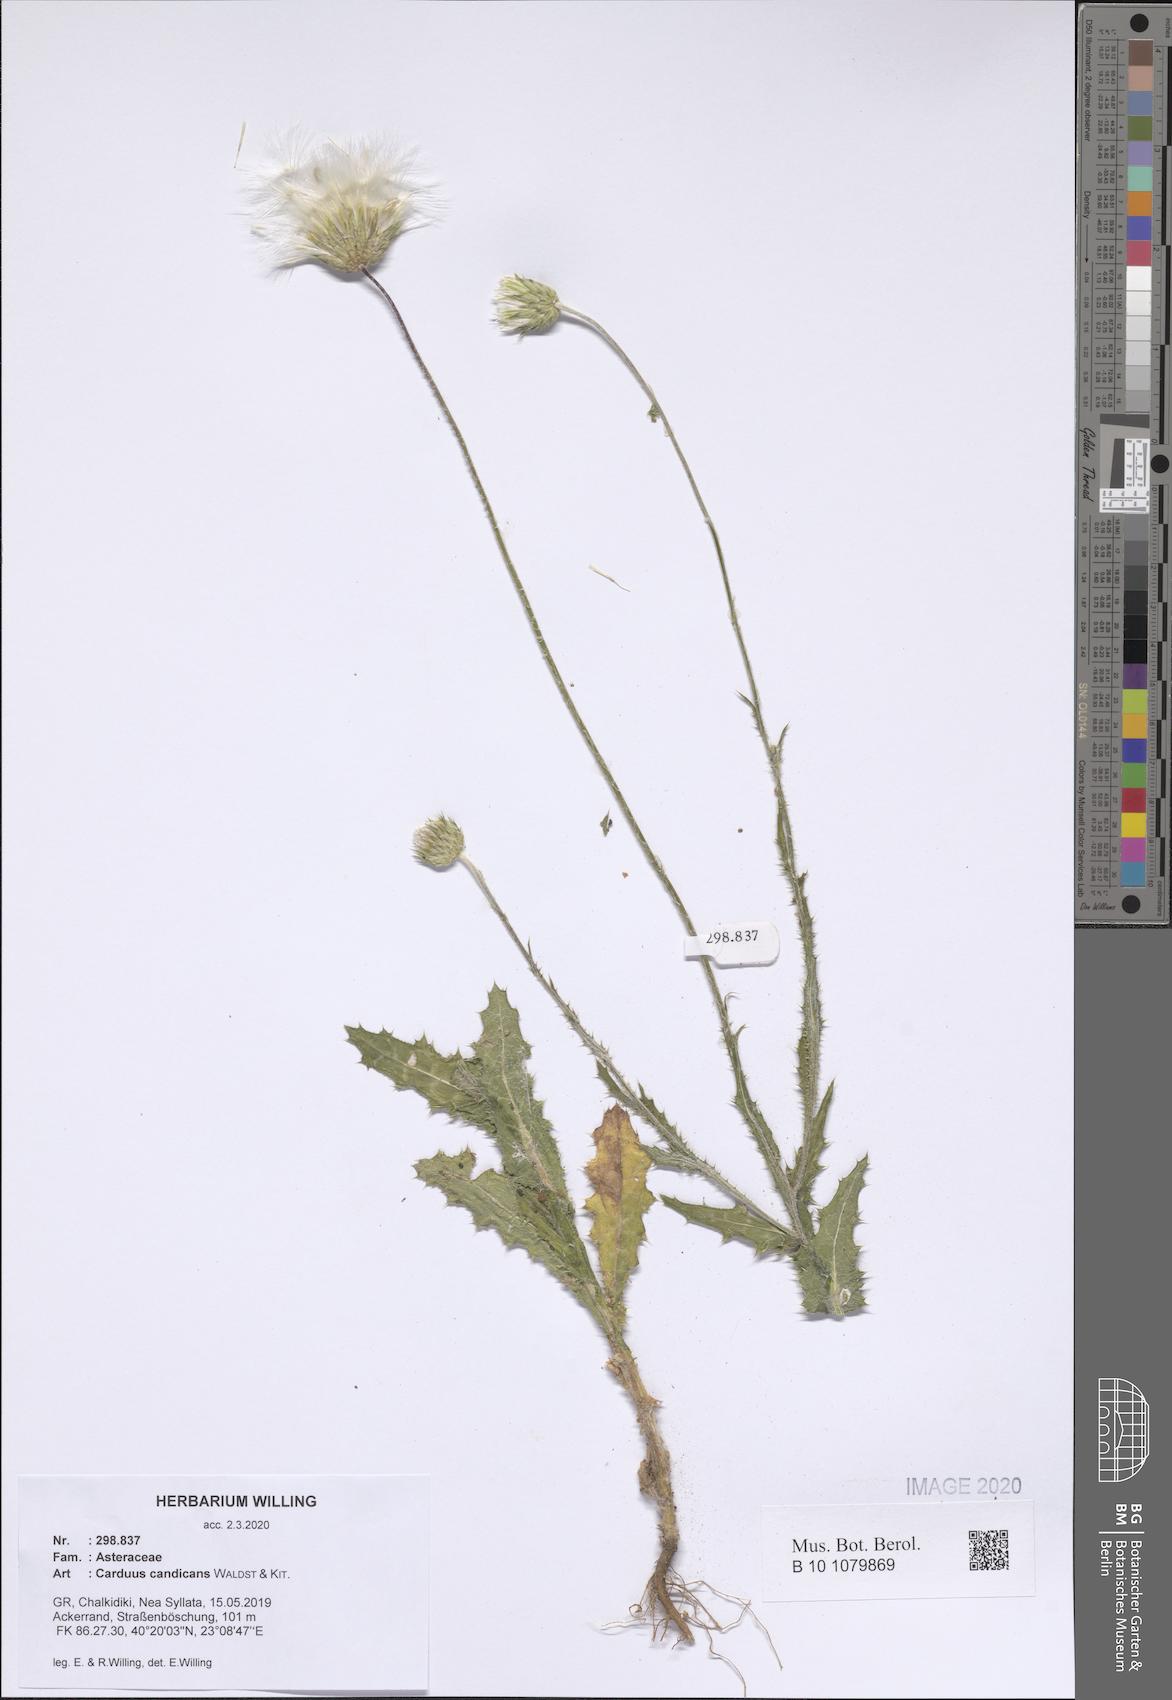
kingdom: Plantae
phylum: Tracheophyta
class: Magnoliopsida
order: Asterales
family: Asteraceae
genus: Carduus
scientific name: Carduus candicans
